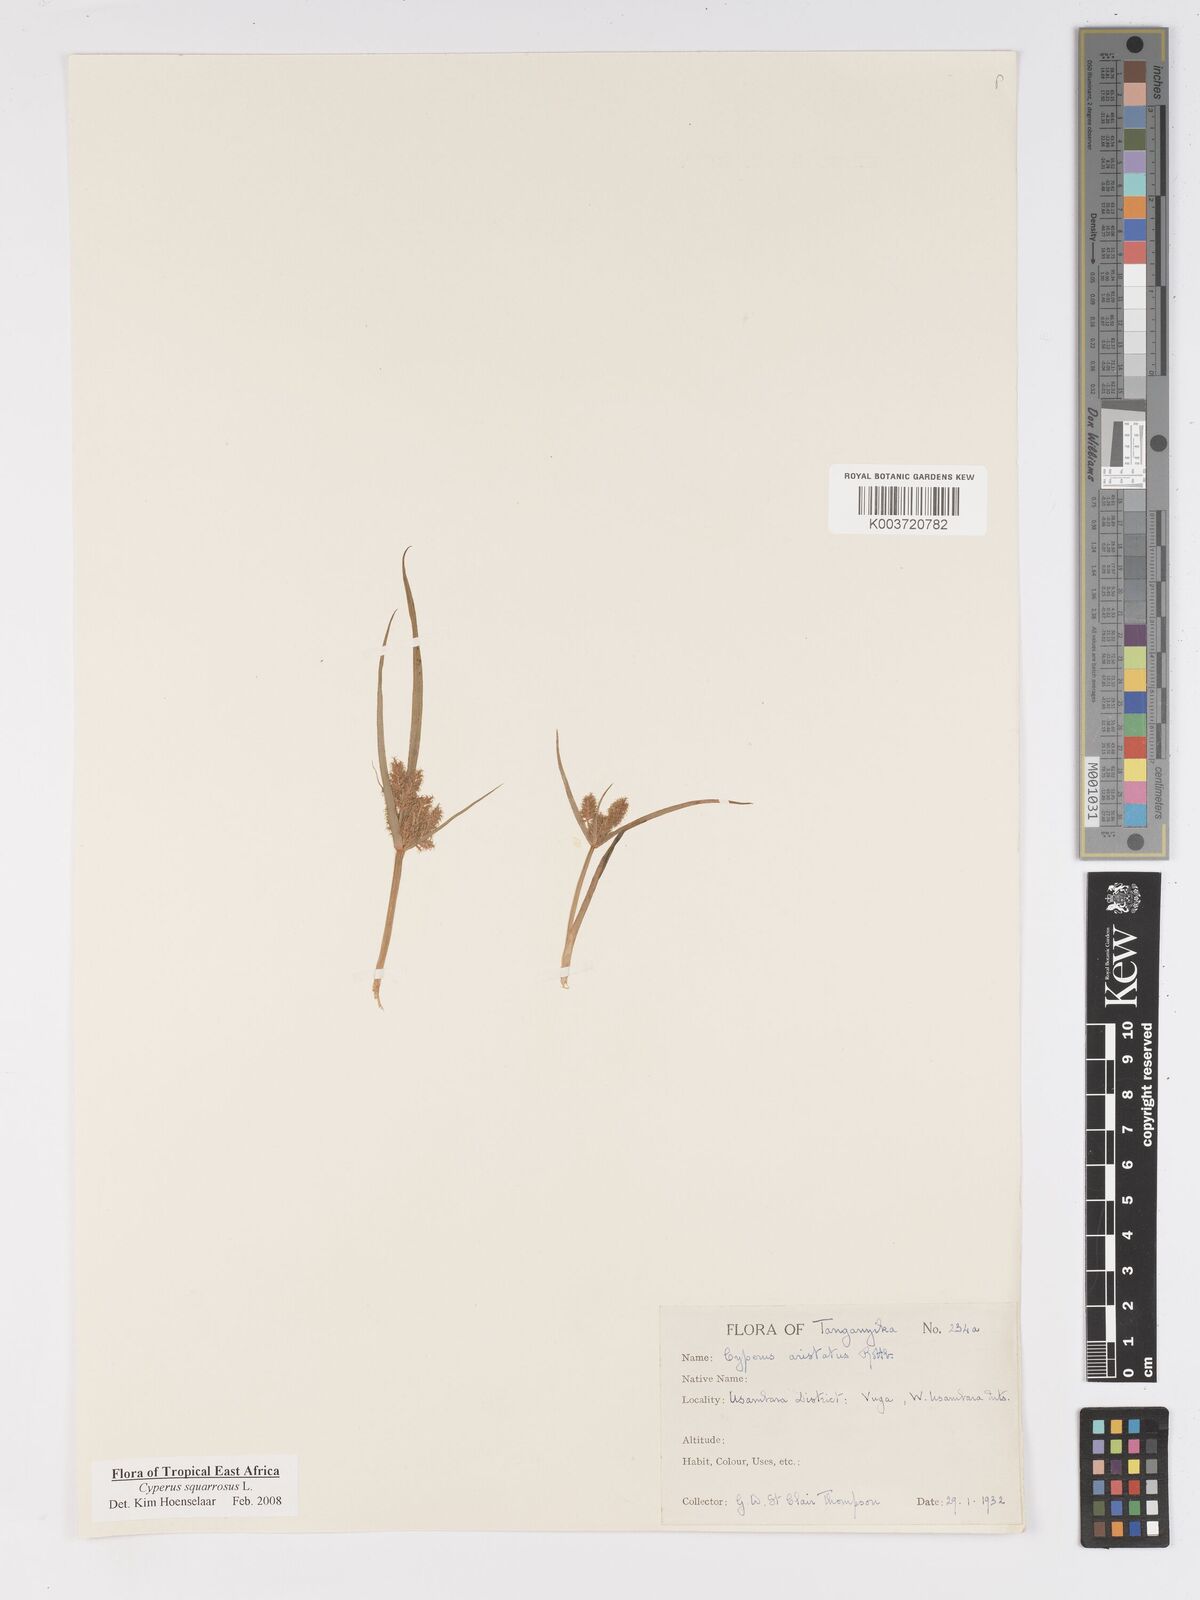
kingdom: Plantae
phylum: Tracheophyta
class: Liliopsida
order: Poales
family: Cyperaceae
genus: Cyperus
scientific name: Cyperus squarrosus
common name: Awned cyperus
